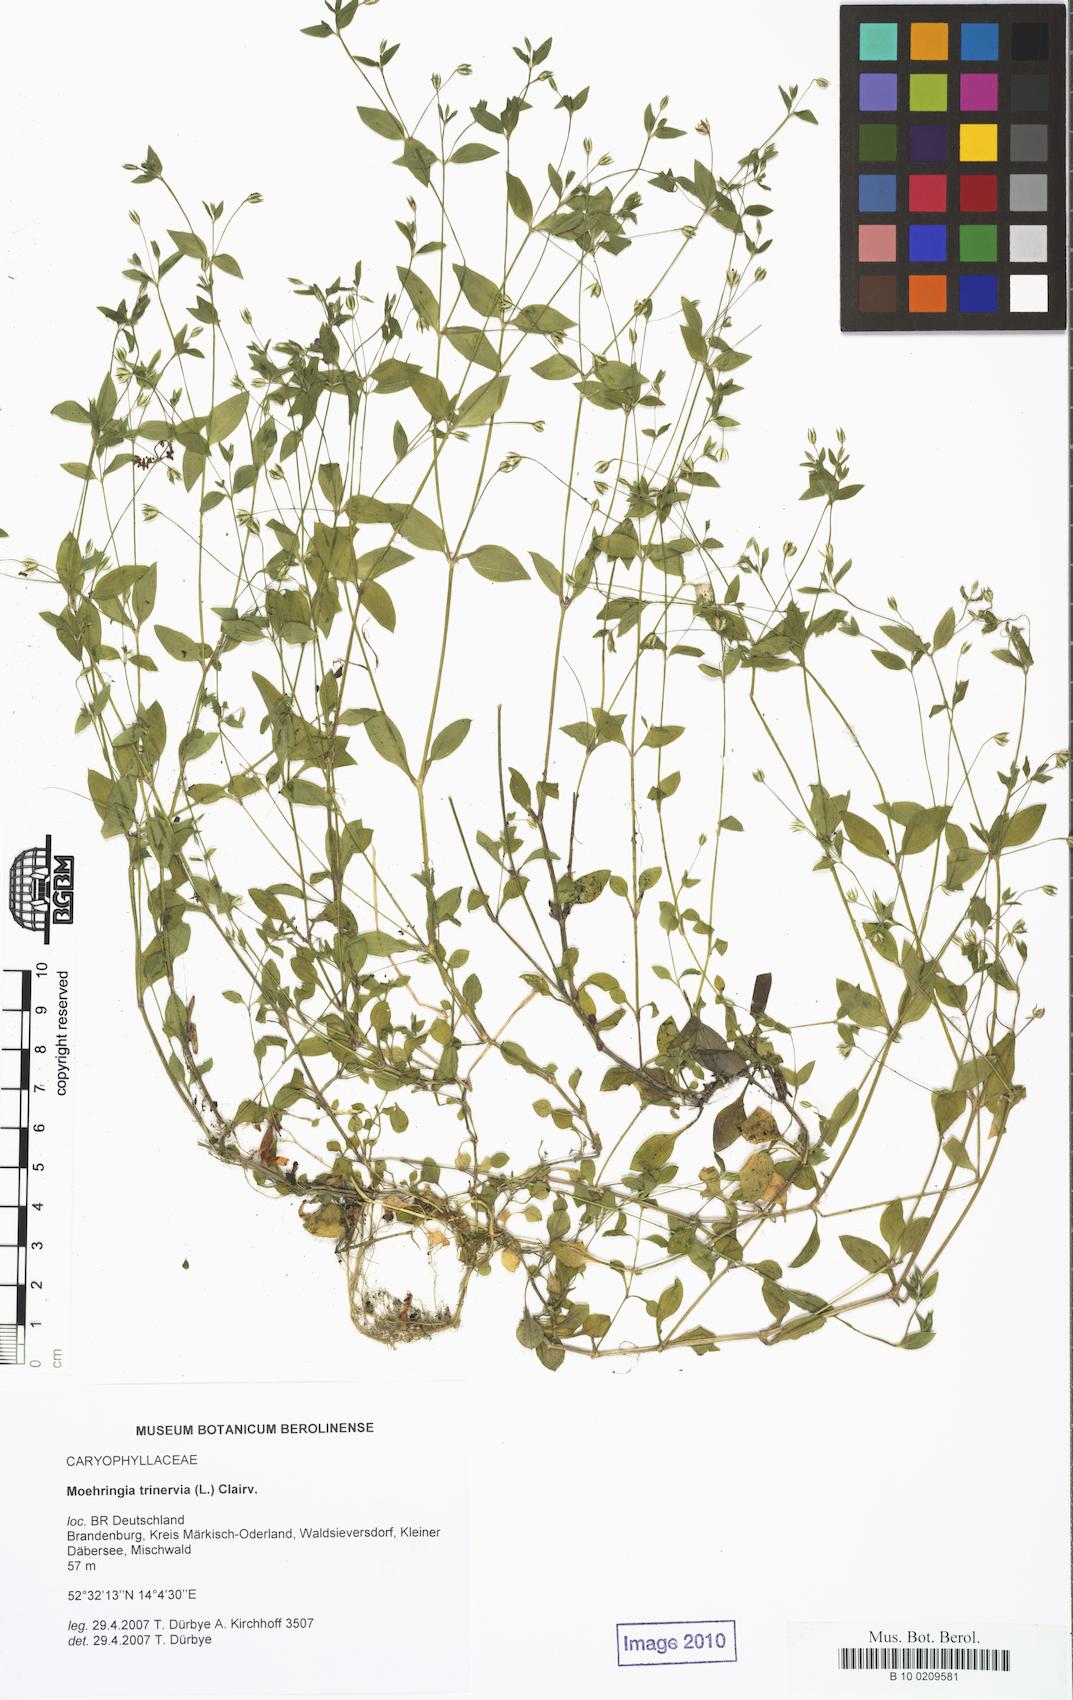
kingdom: Plantae
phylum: Tracheophyta
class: Magnoliopsida
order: Caryophyllales
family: Caryophyllaceae
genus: Moehringia
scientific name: Moehringia trinervia
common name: Three-nerved sandwort
